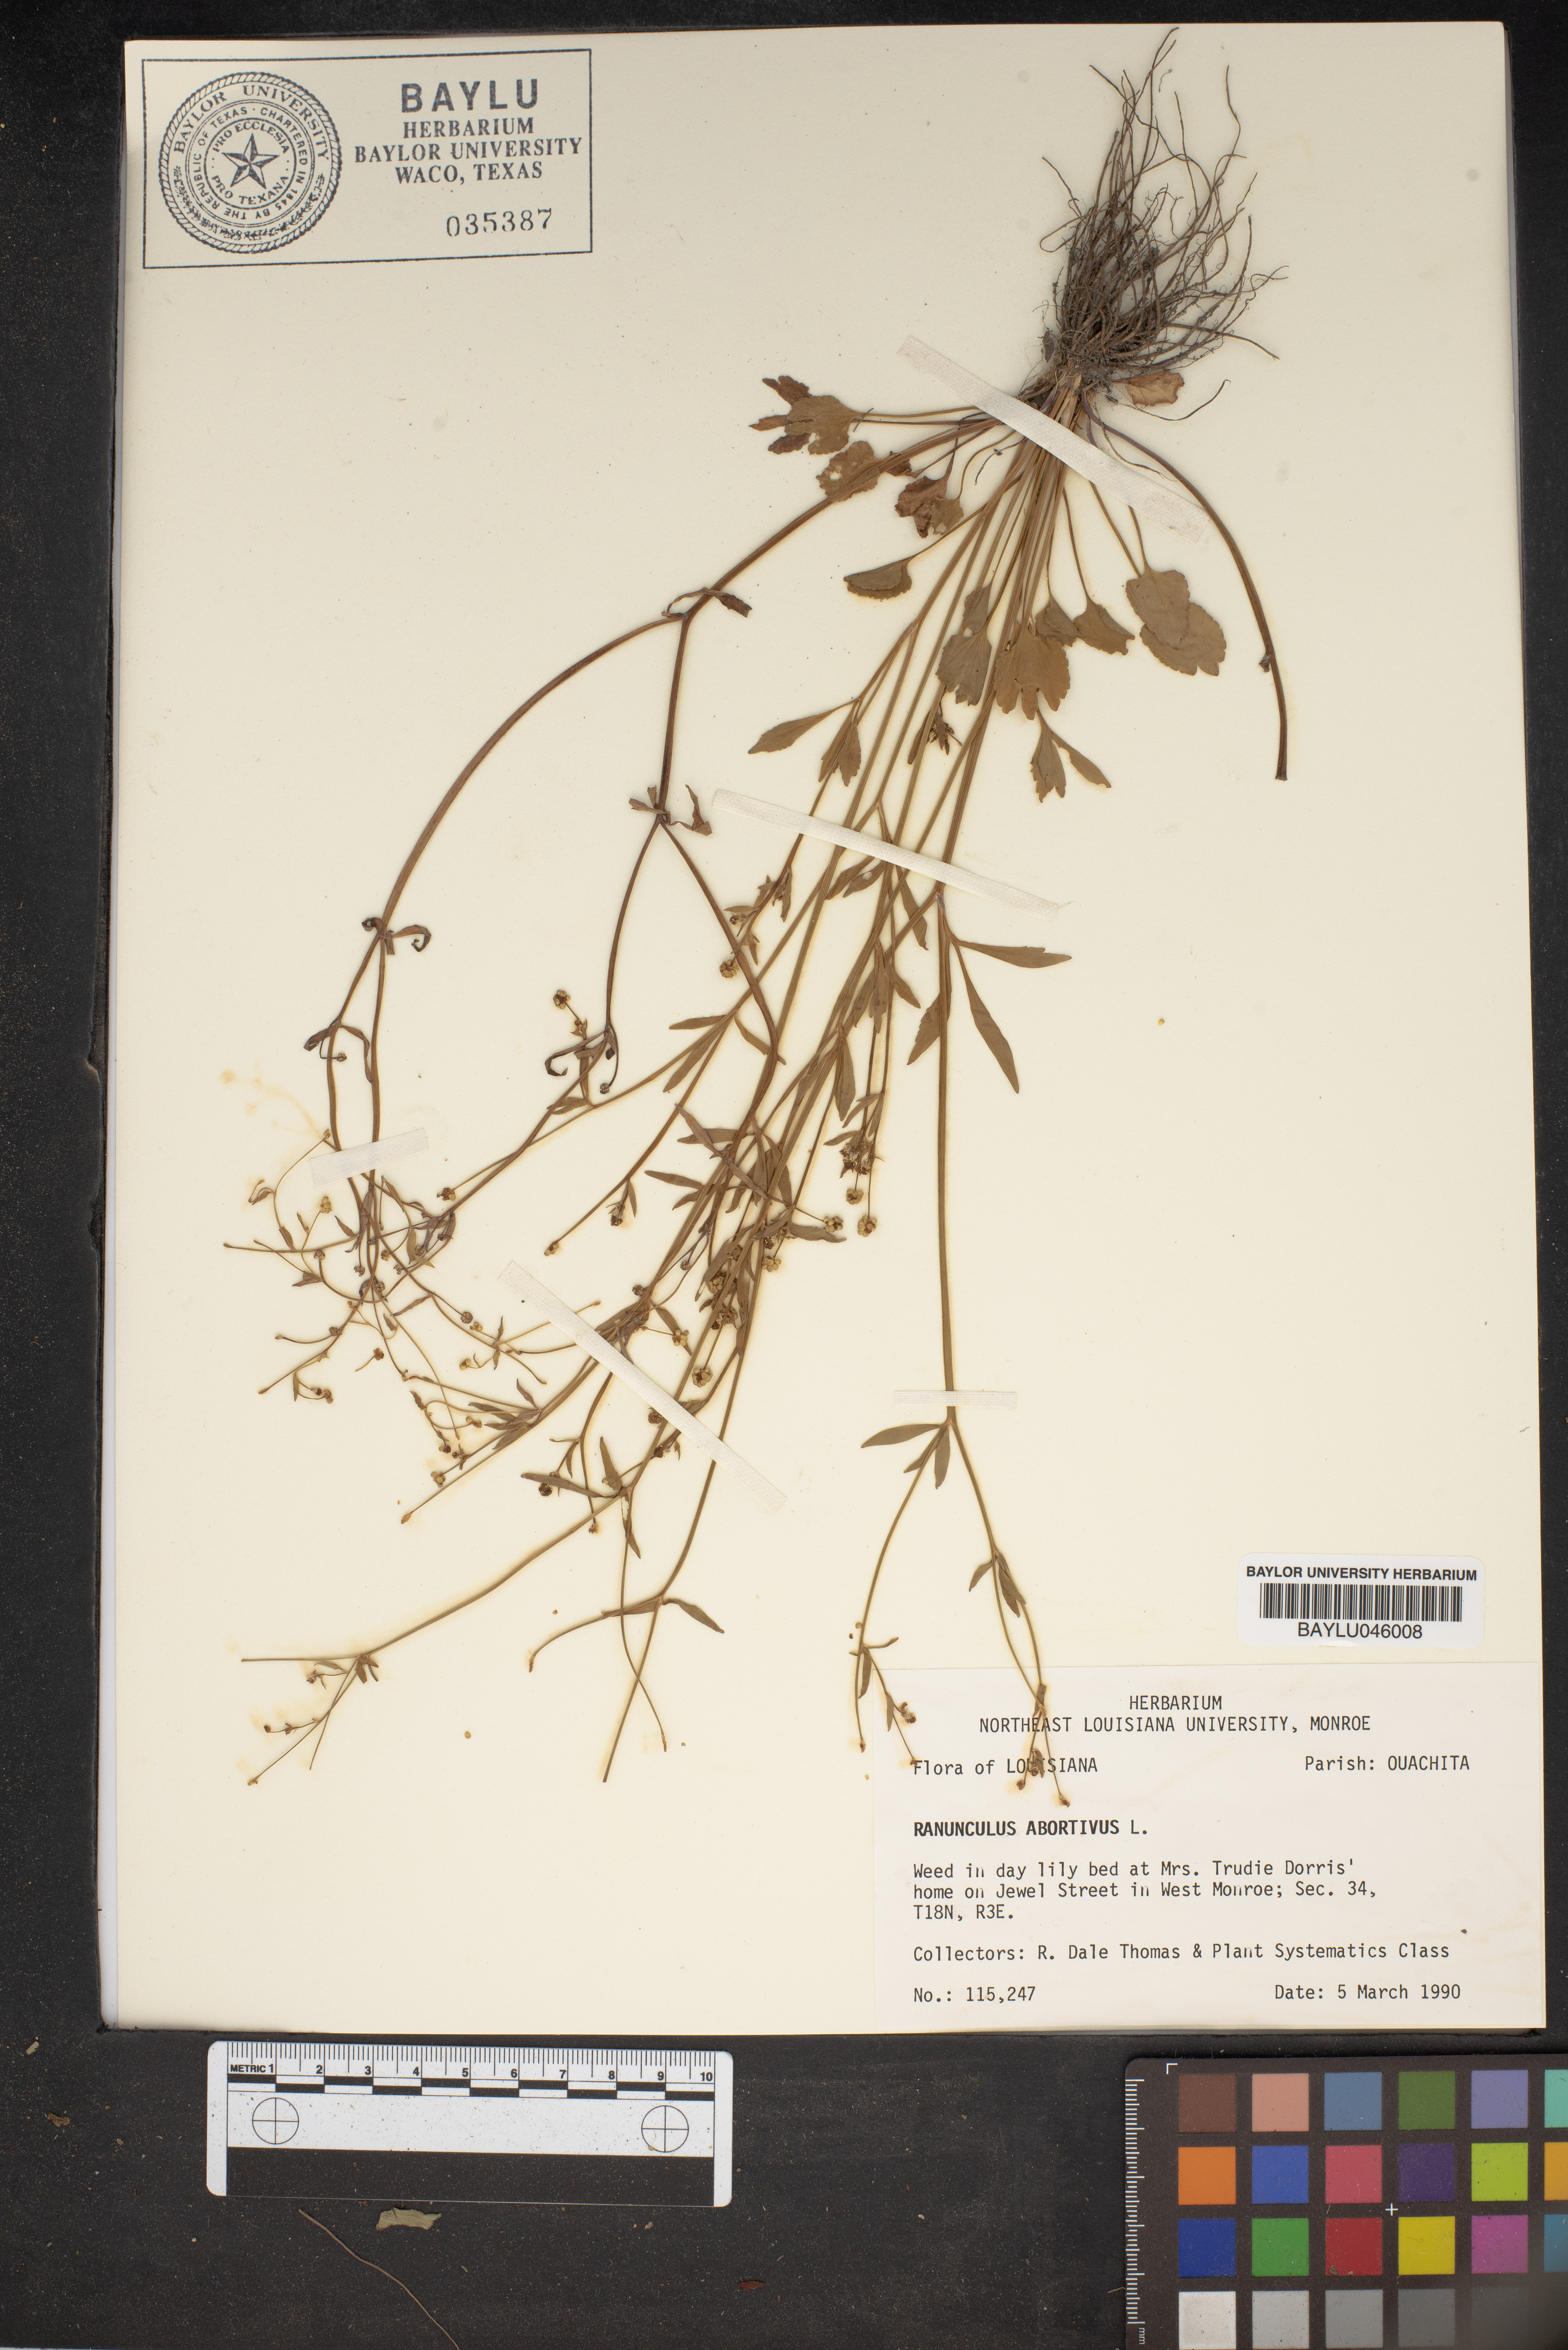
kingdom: Plantae
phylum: Tracheophyta
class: Magnoliopsida
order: Ranunculales
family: Ranunculaceae
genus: Ranunculus
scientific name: Ranunculus abortivus
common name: Early wood buttercup
